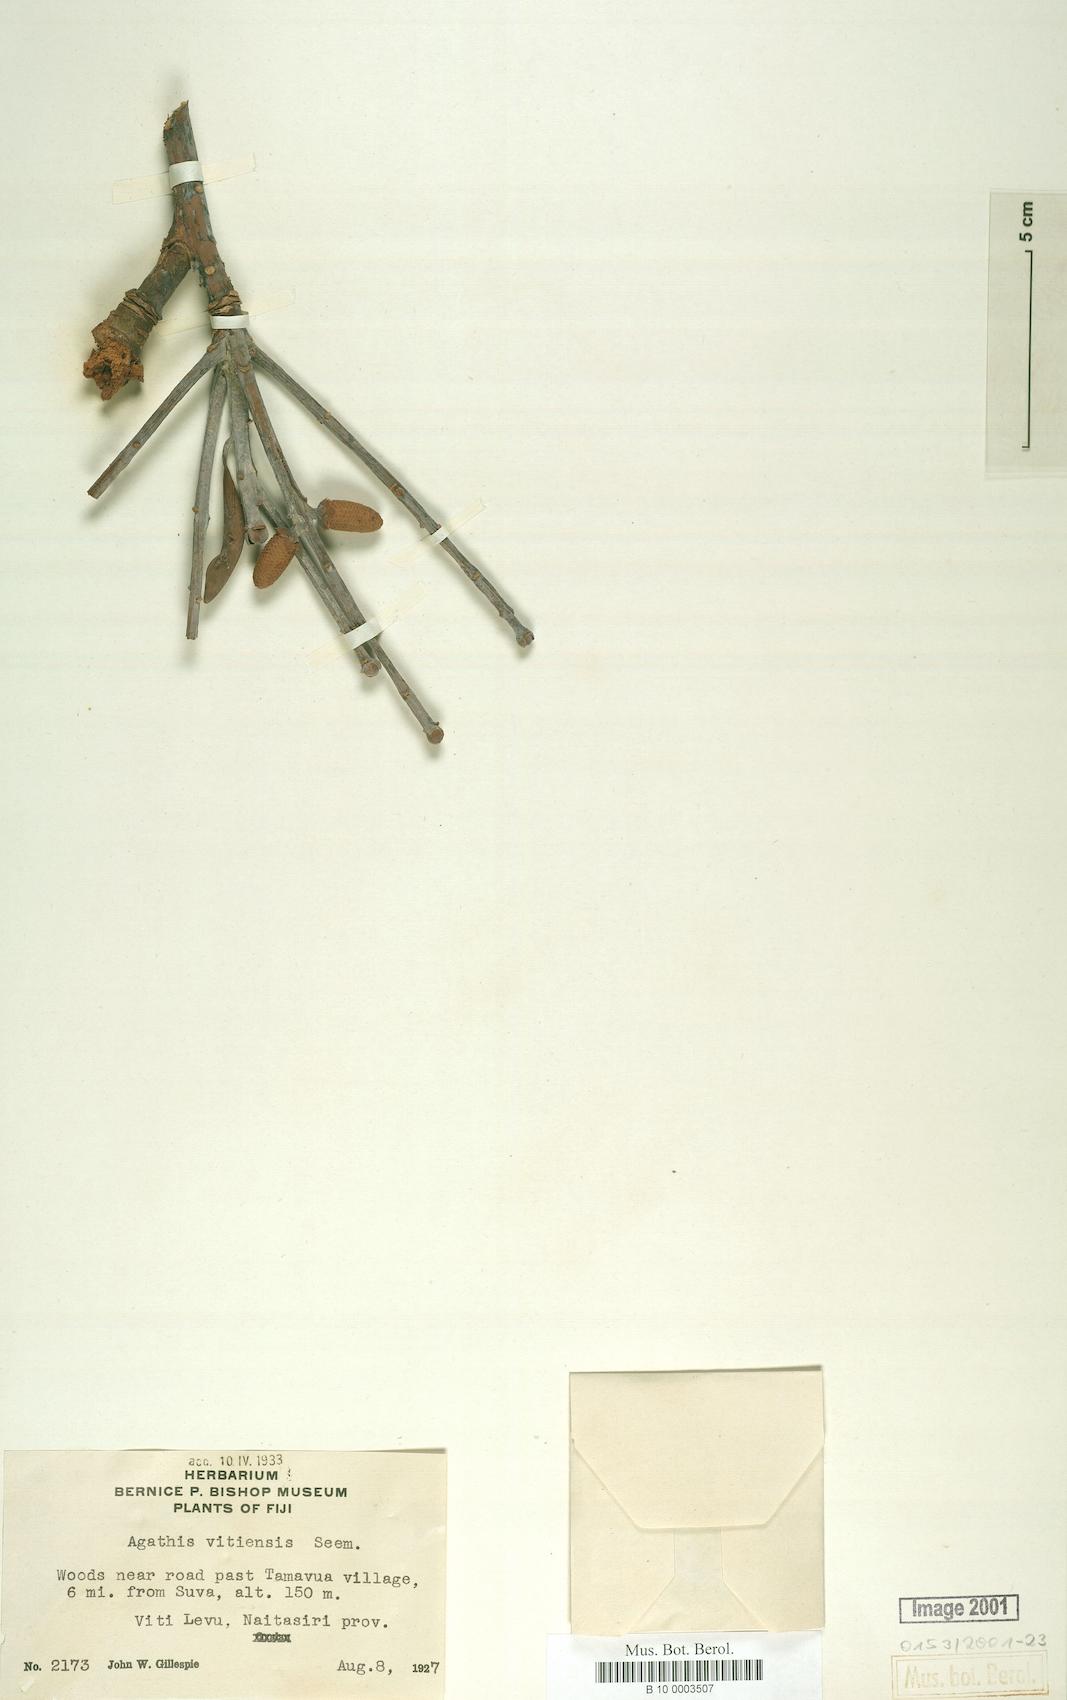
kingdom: Plantae
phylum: Tracheophyta
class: Pinopsida
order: Pinales
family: Araucariaceae
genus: Agathis
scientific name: Agathis macrophylla
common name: Fijian kauri pine
